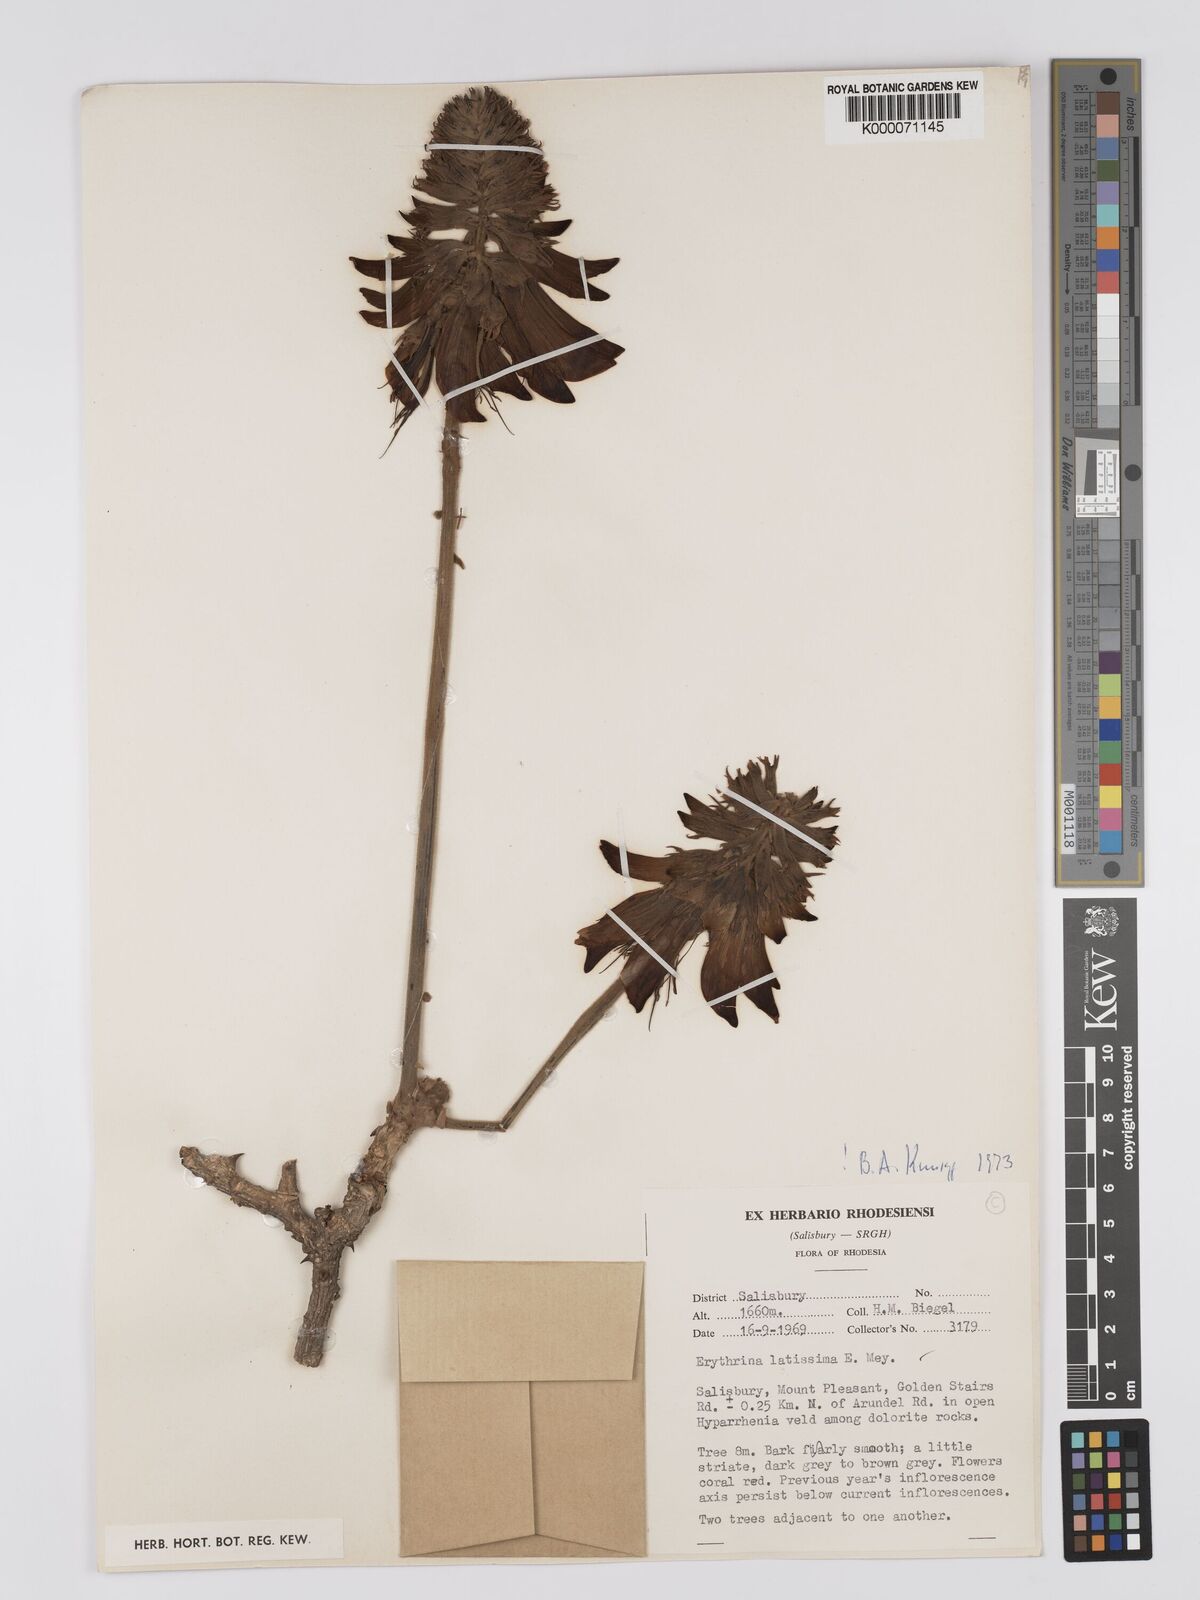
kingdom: Plantae
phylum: Tracheophyta
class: Magnoliopsida
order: Fabales
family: Fabaceae
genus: Erythrina
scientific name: Erythrina latissima
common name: Broad-leaved coral tree
